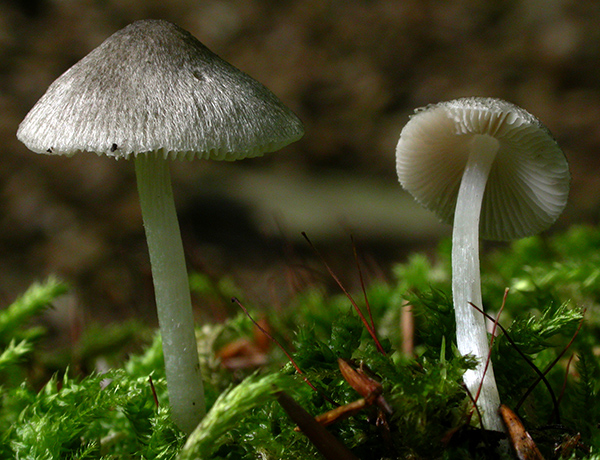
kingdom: Fungi
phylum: Basidiomycota
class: Agaricomycetes
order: Agaricales
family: Pluteaceae
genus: Pluteus
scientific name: Pluteus
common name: stivhåret skærmhat
